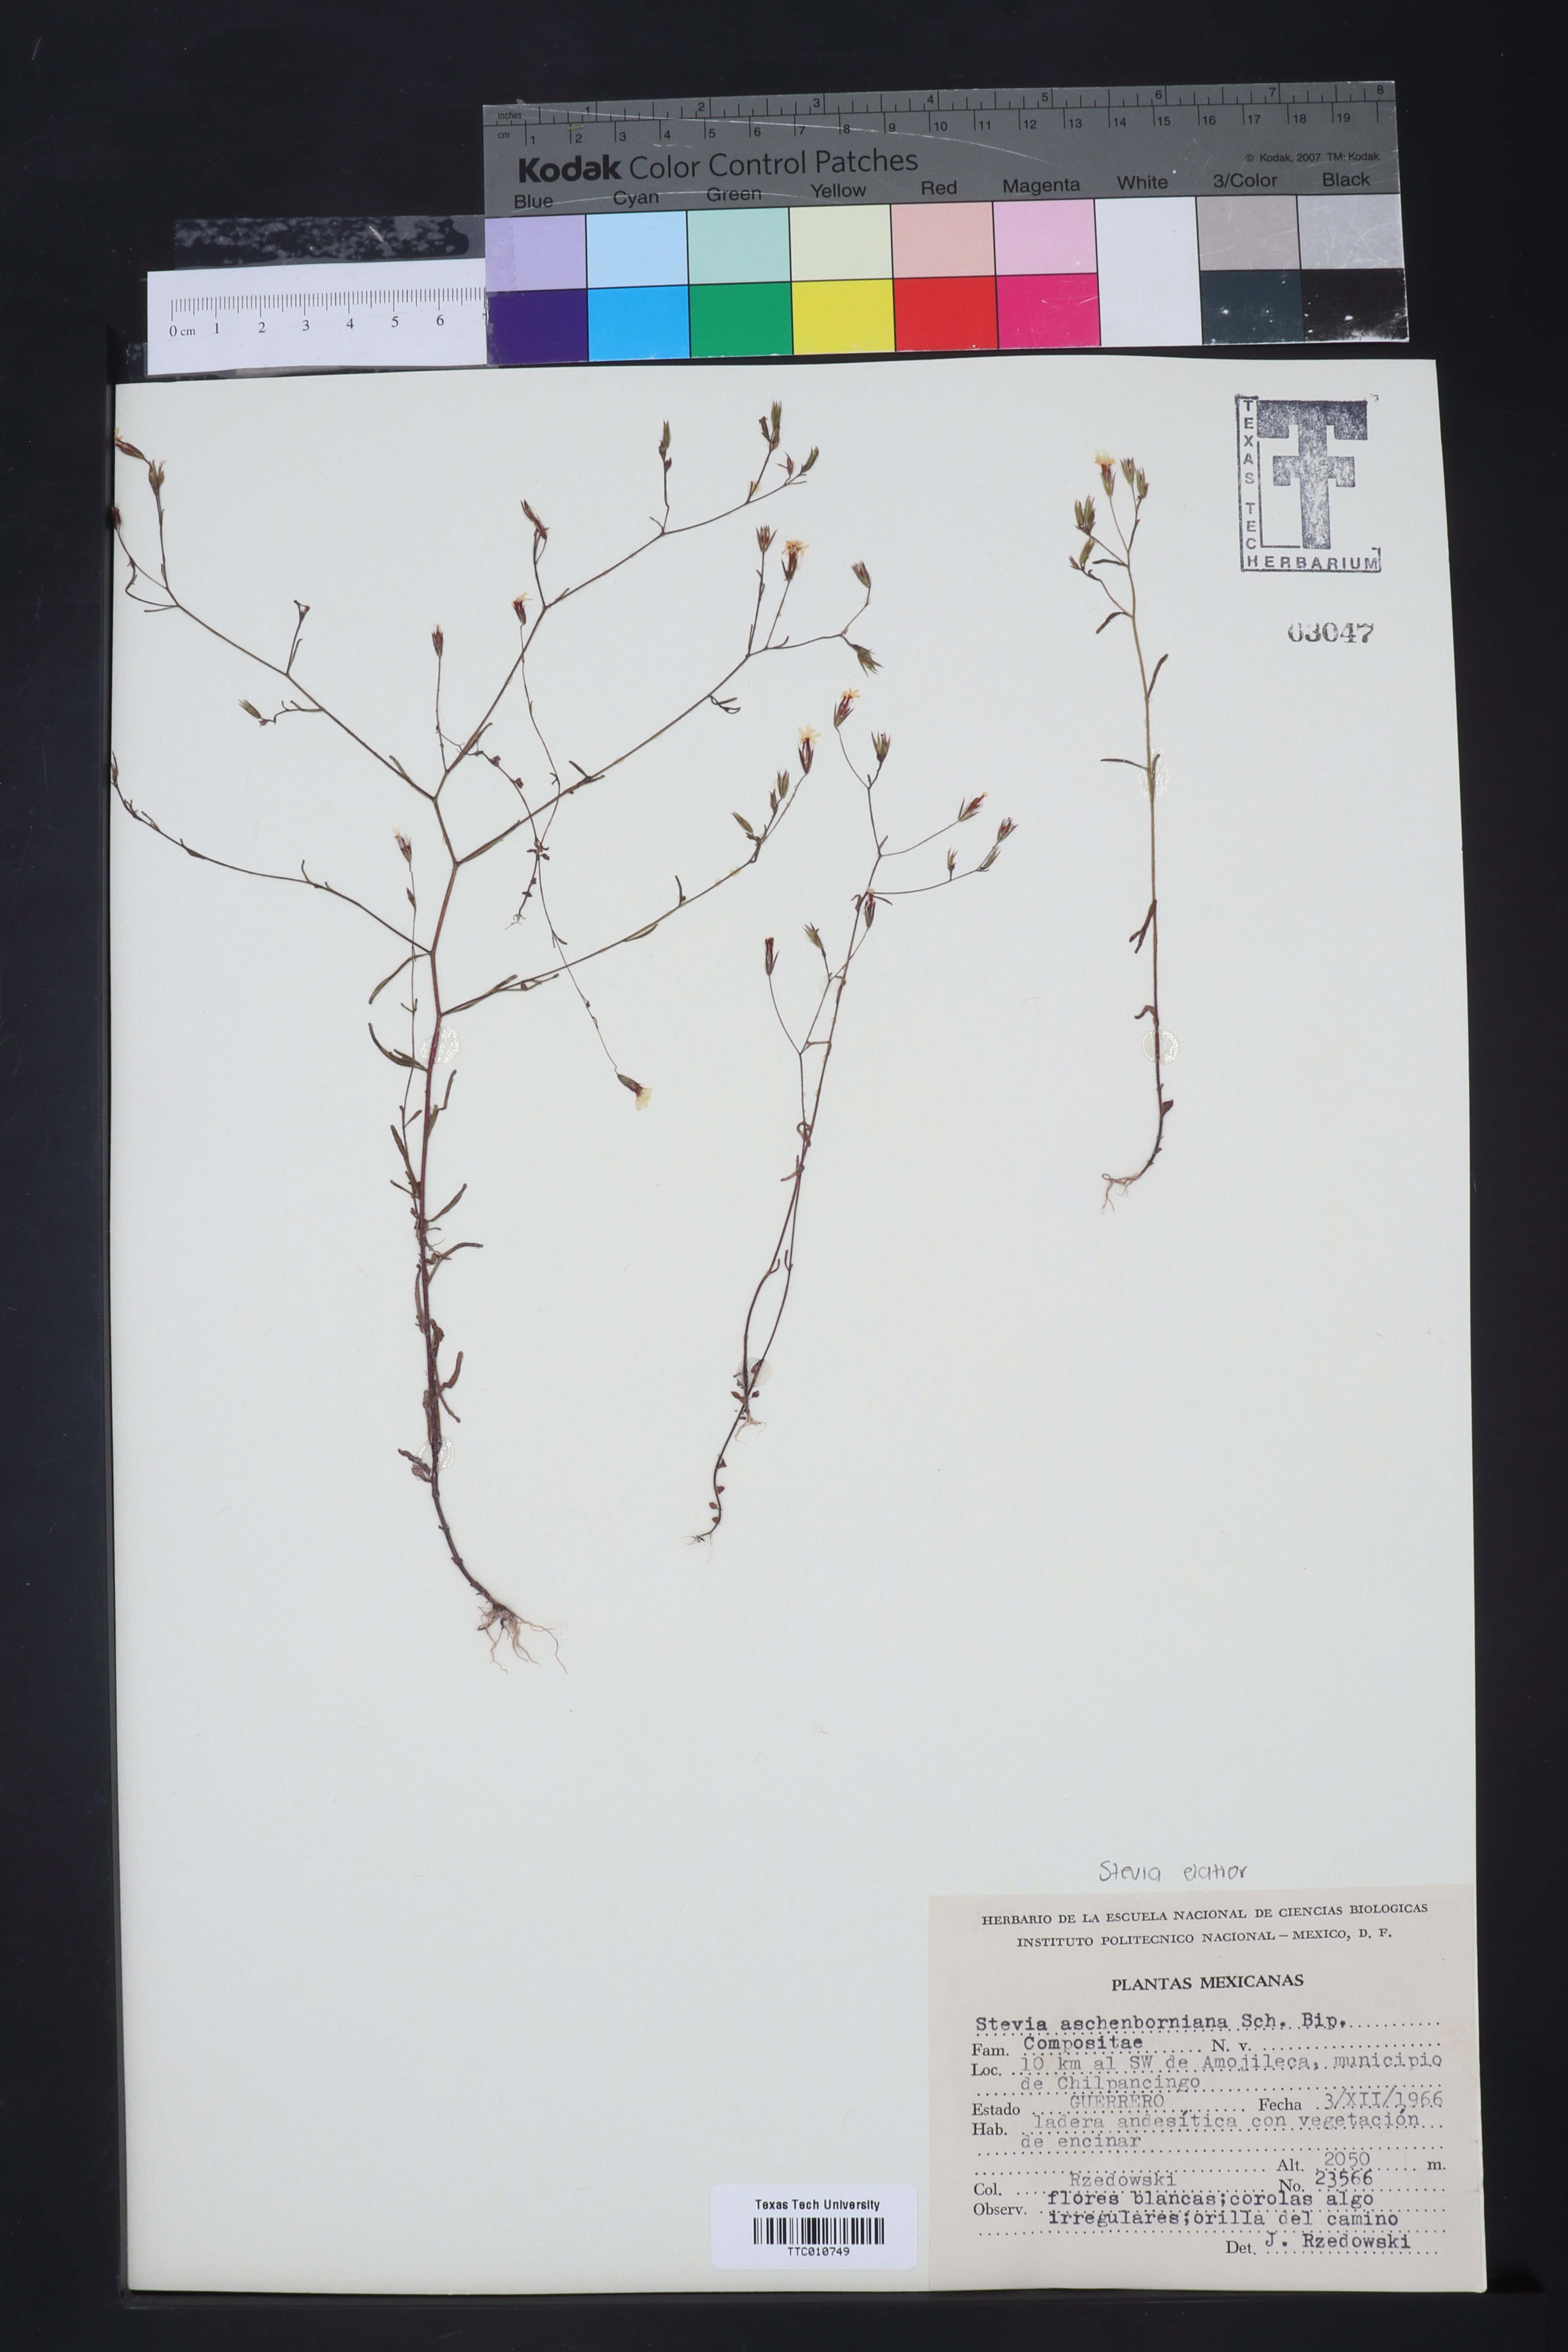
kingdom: Plantae
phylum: Tracheophyta
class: Magnoliopsida
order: Asterales
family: Asteraceae
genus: Stevia
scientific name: Stevia aschenborniana
